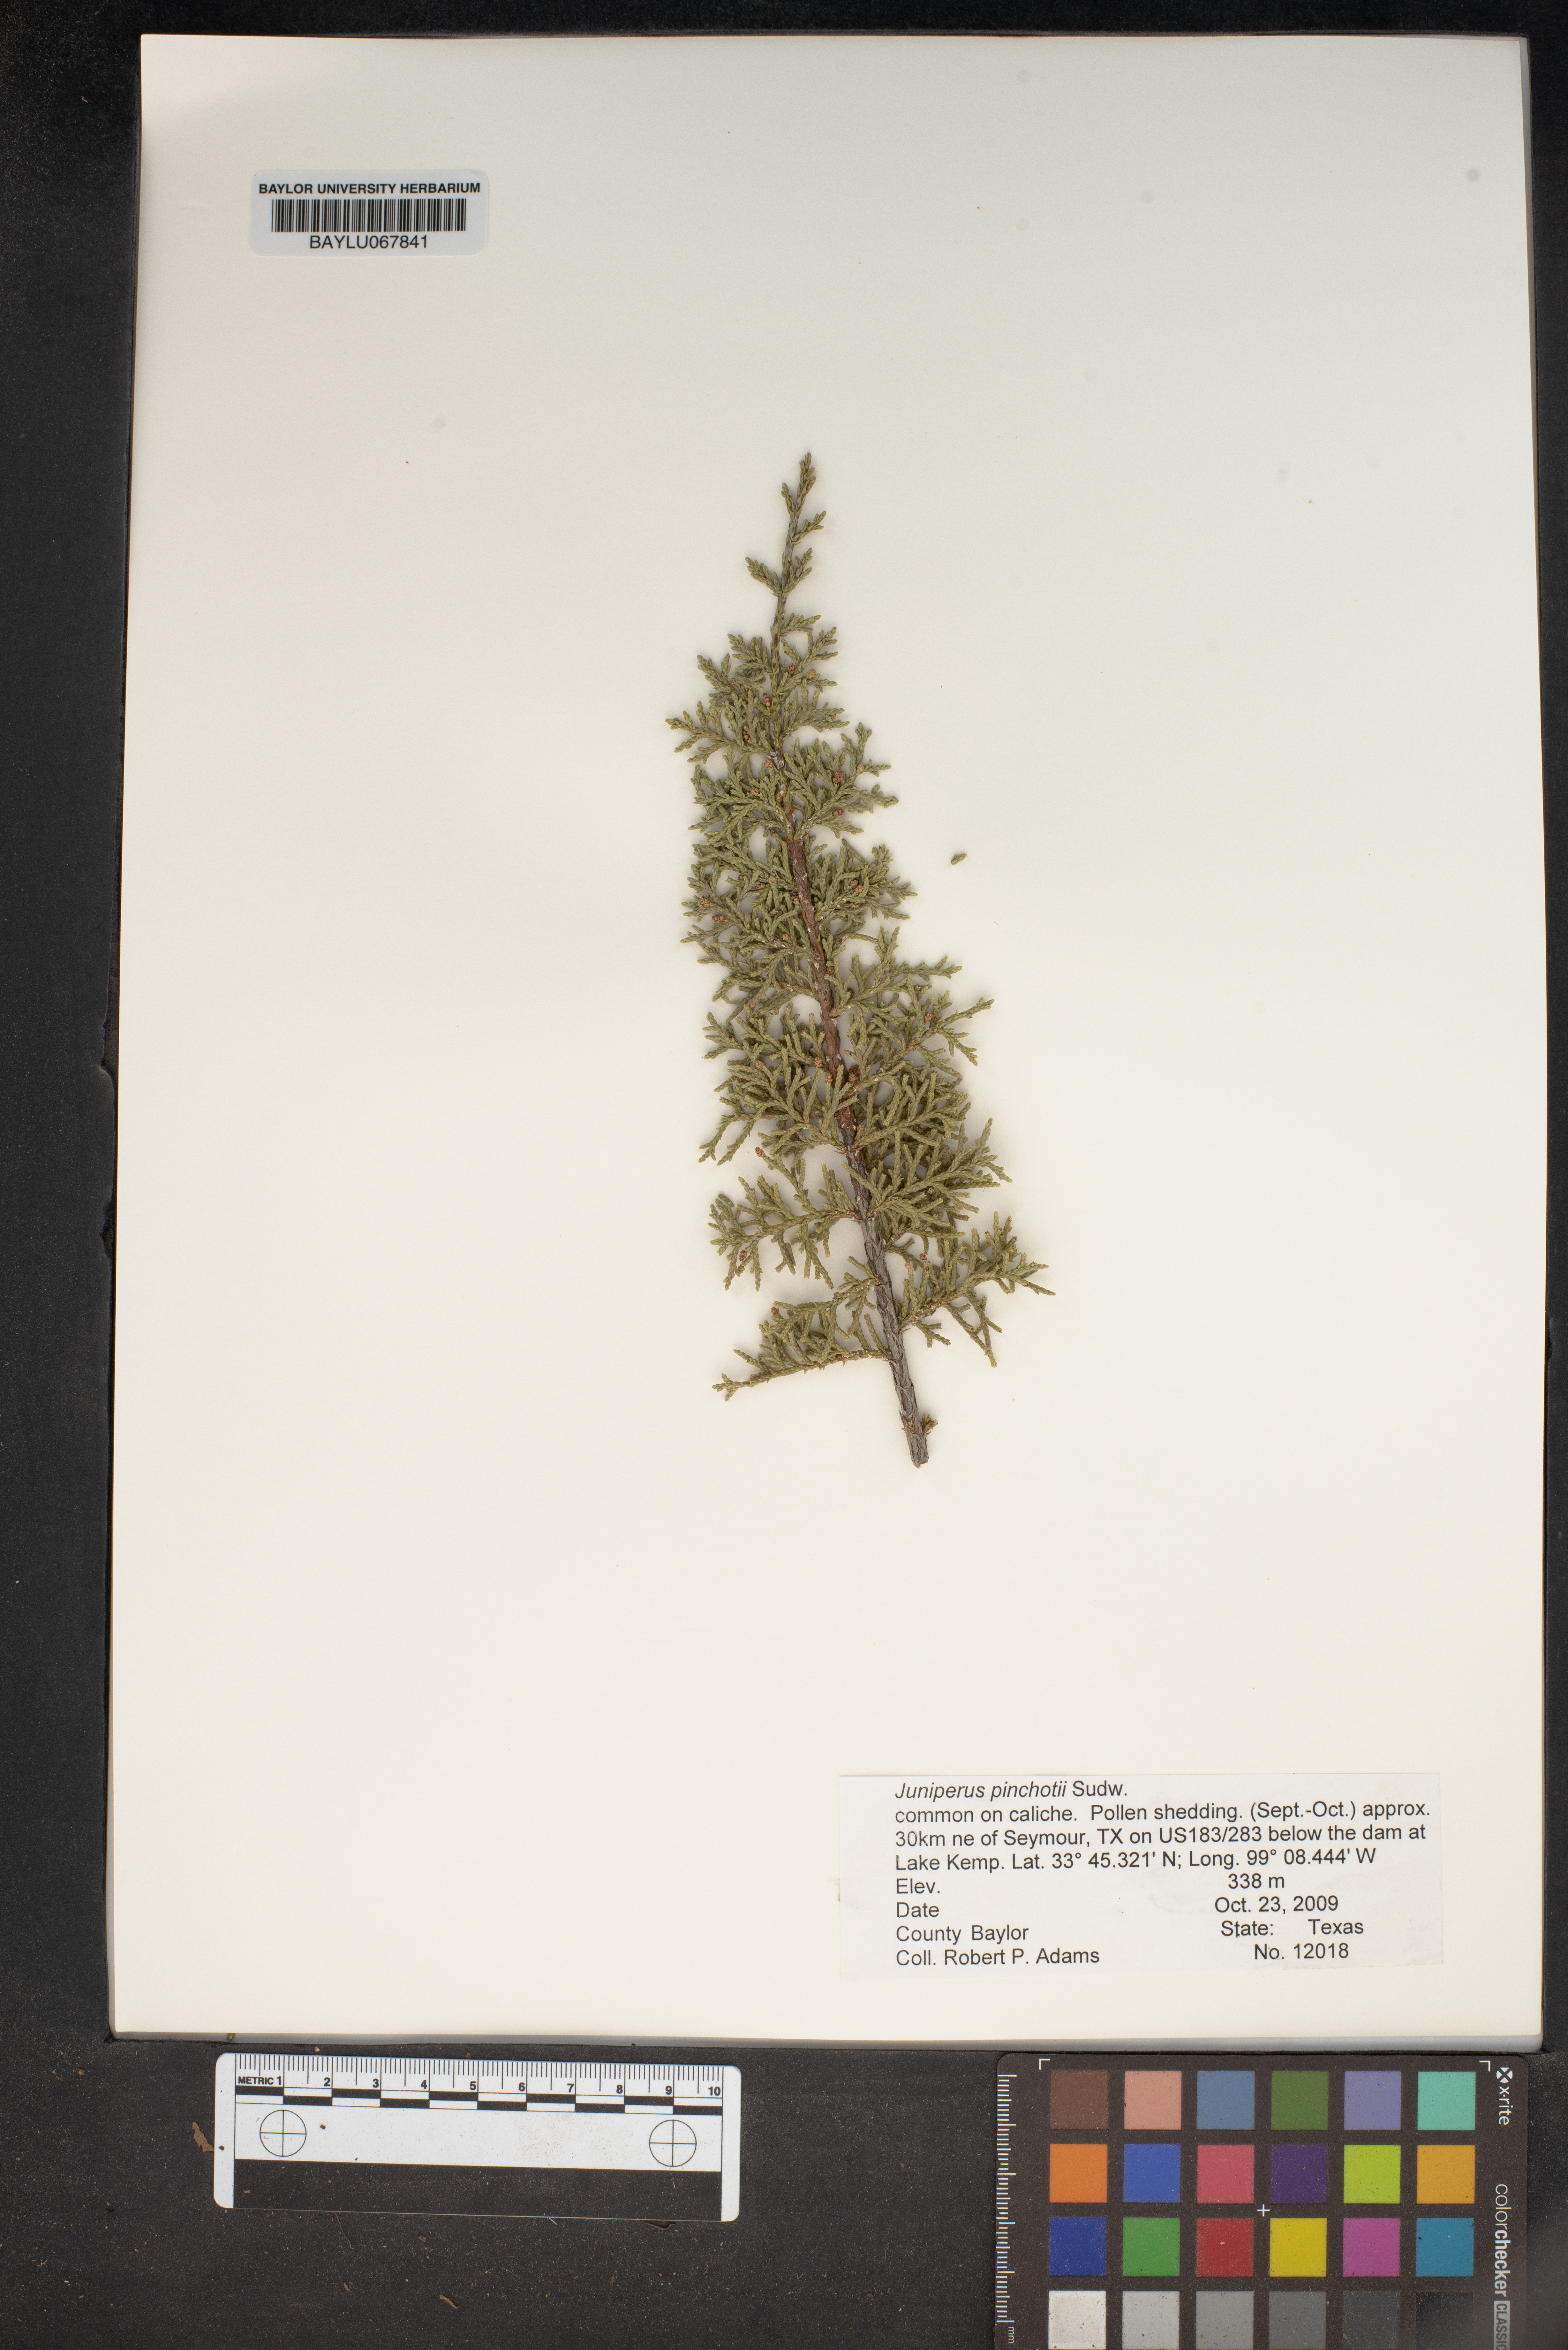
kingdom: Plantae
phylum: Tracheophyta
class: Pinopsida
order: Pinales
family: Cupressaceae
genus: Juniperus
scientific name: Juniperus pinchotii
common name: Pinchot juniper
